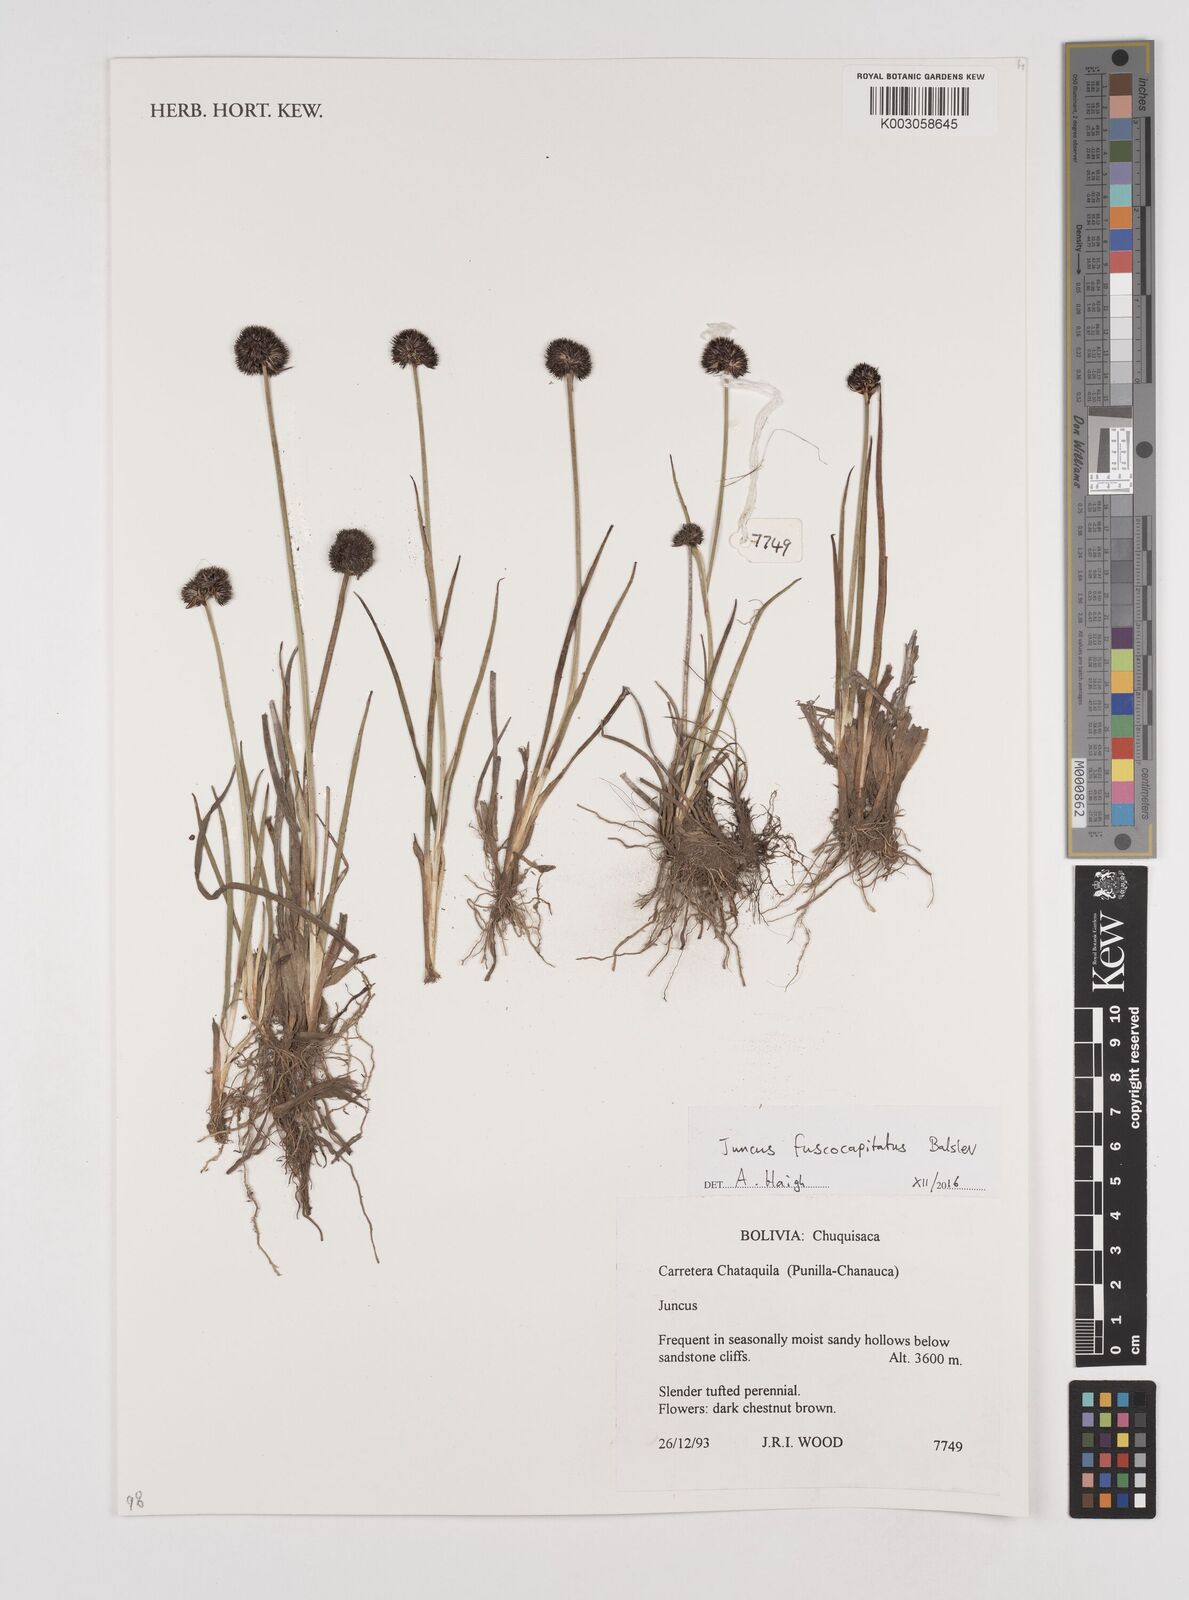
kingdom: Plantae
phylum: Tracheophyta
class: Liliopsida
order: Poales
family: Juncaceae
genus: Juncus
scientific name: Juncus pallescens
